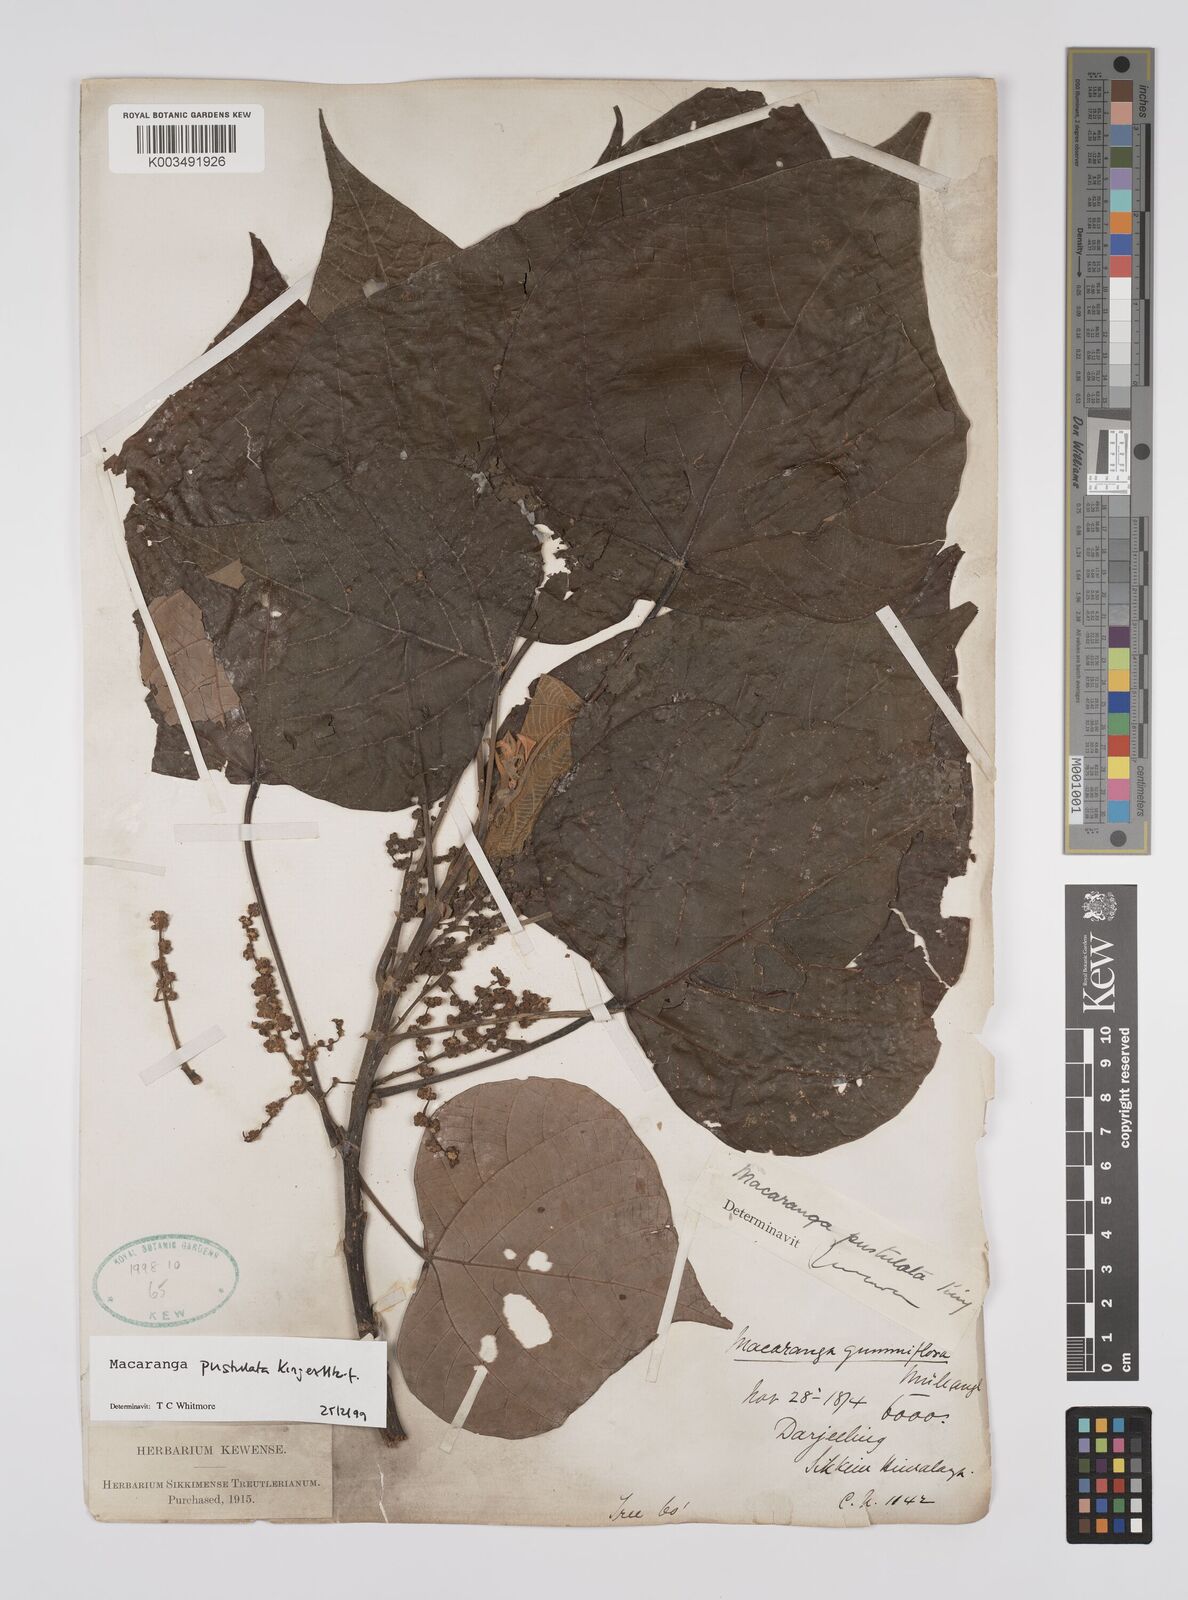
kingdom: Plantae
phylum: Tracheophyta
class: Magnoliopsida
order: Malpighiales
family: Euphorbiaceae
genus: Macaranga
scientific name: Macaranga denticulata
